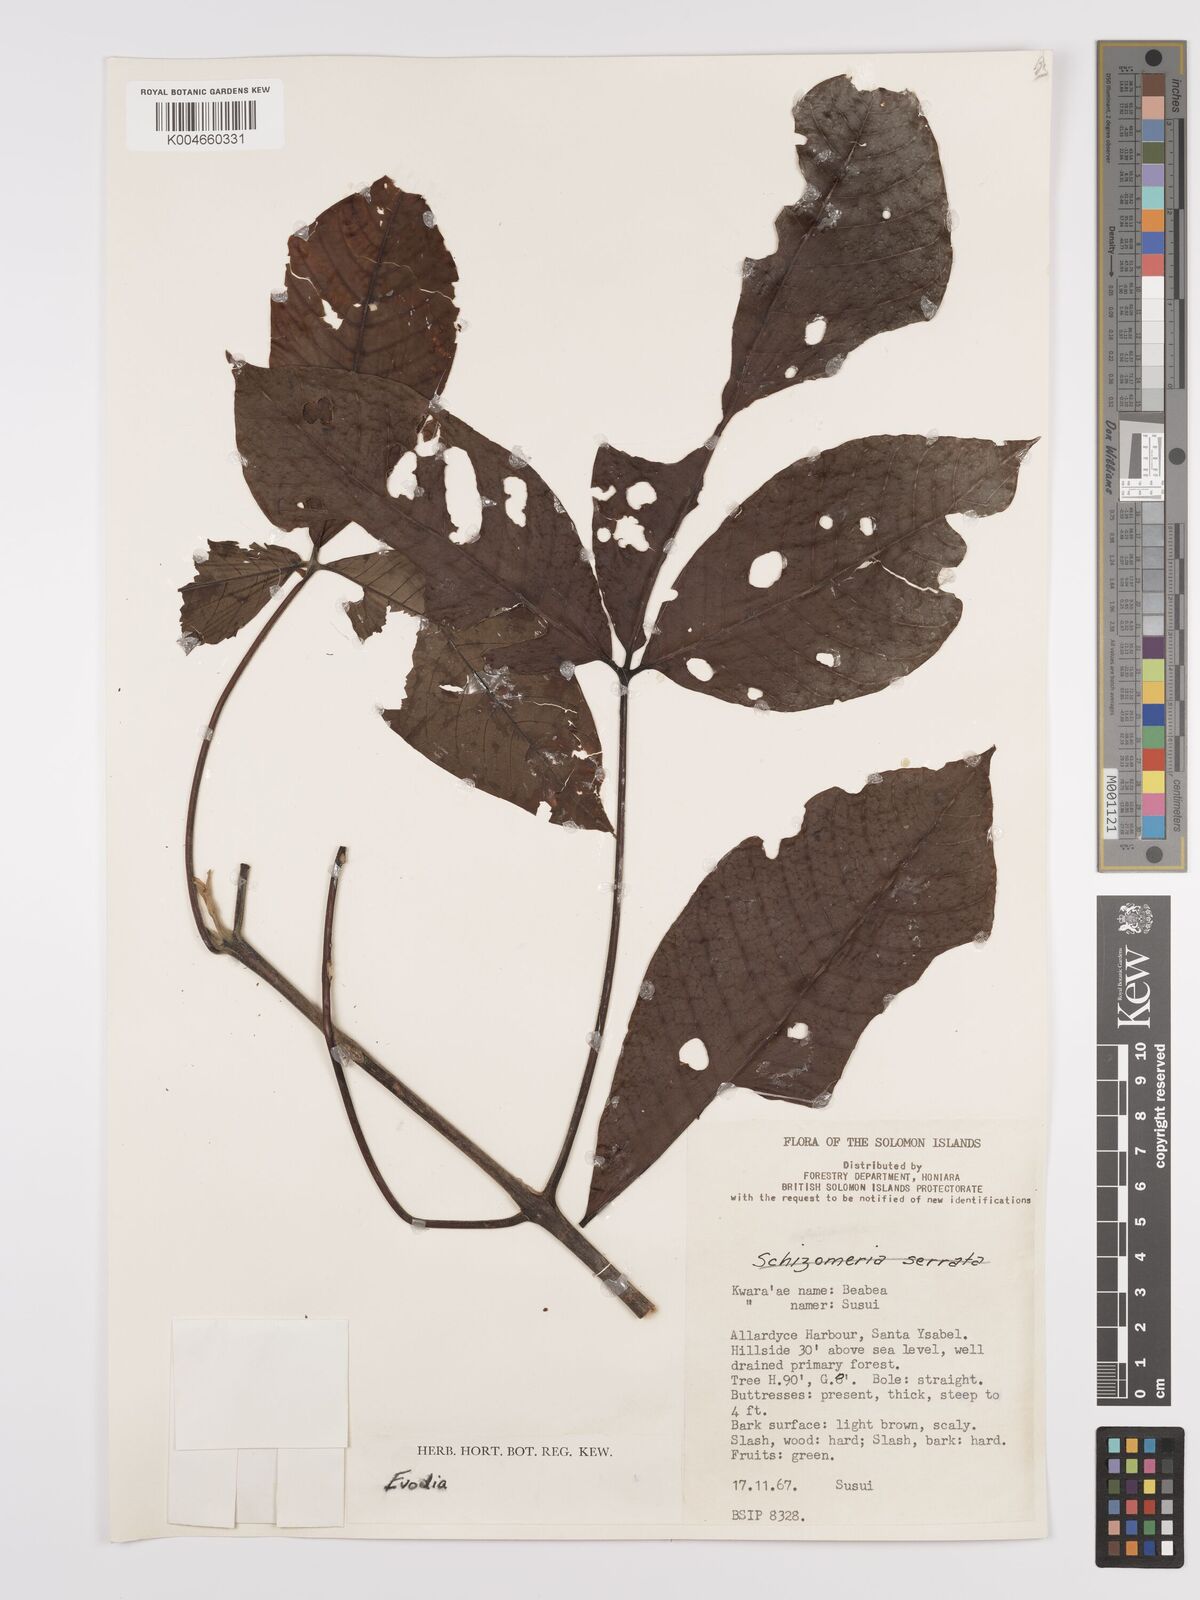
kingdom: Plantae
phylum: Tracheophyta
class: Magnoliopsida
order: Sapindales
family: Rutaceae
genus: Euodia
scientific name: Euodia
